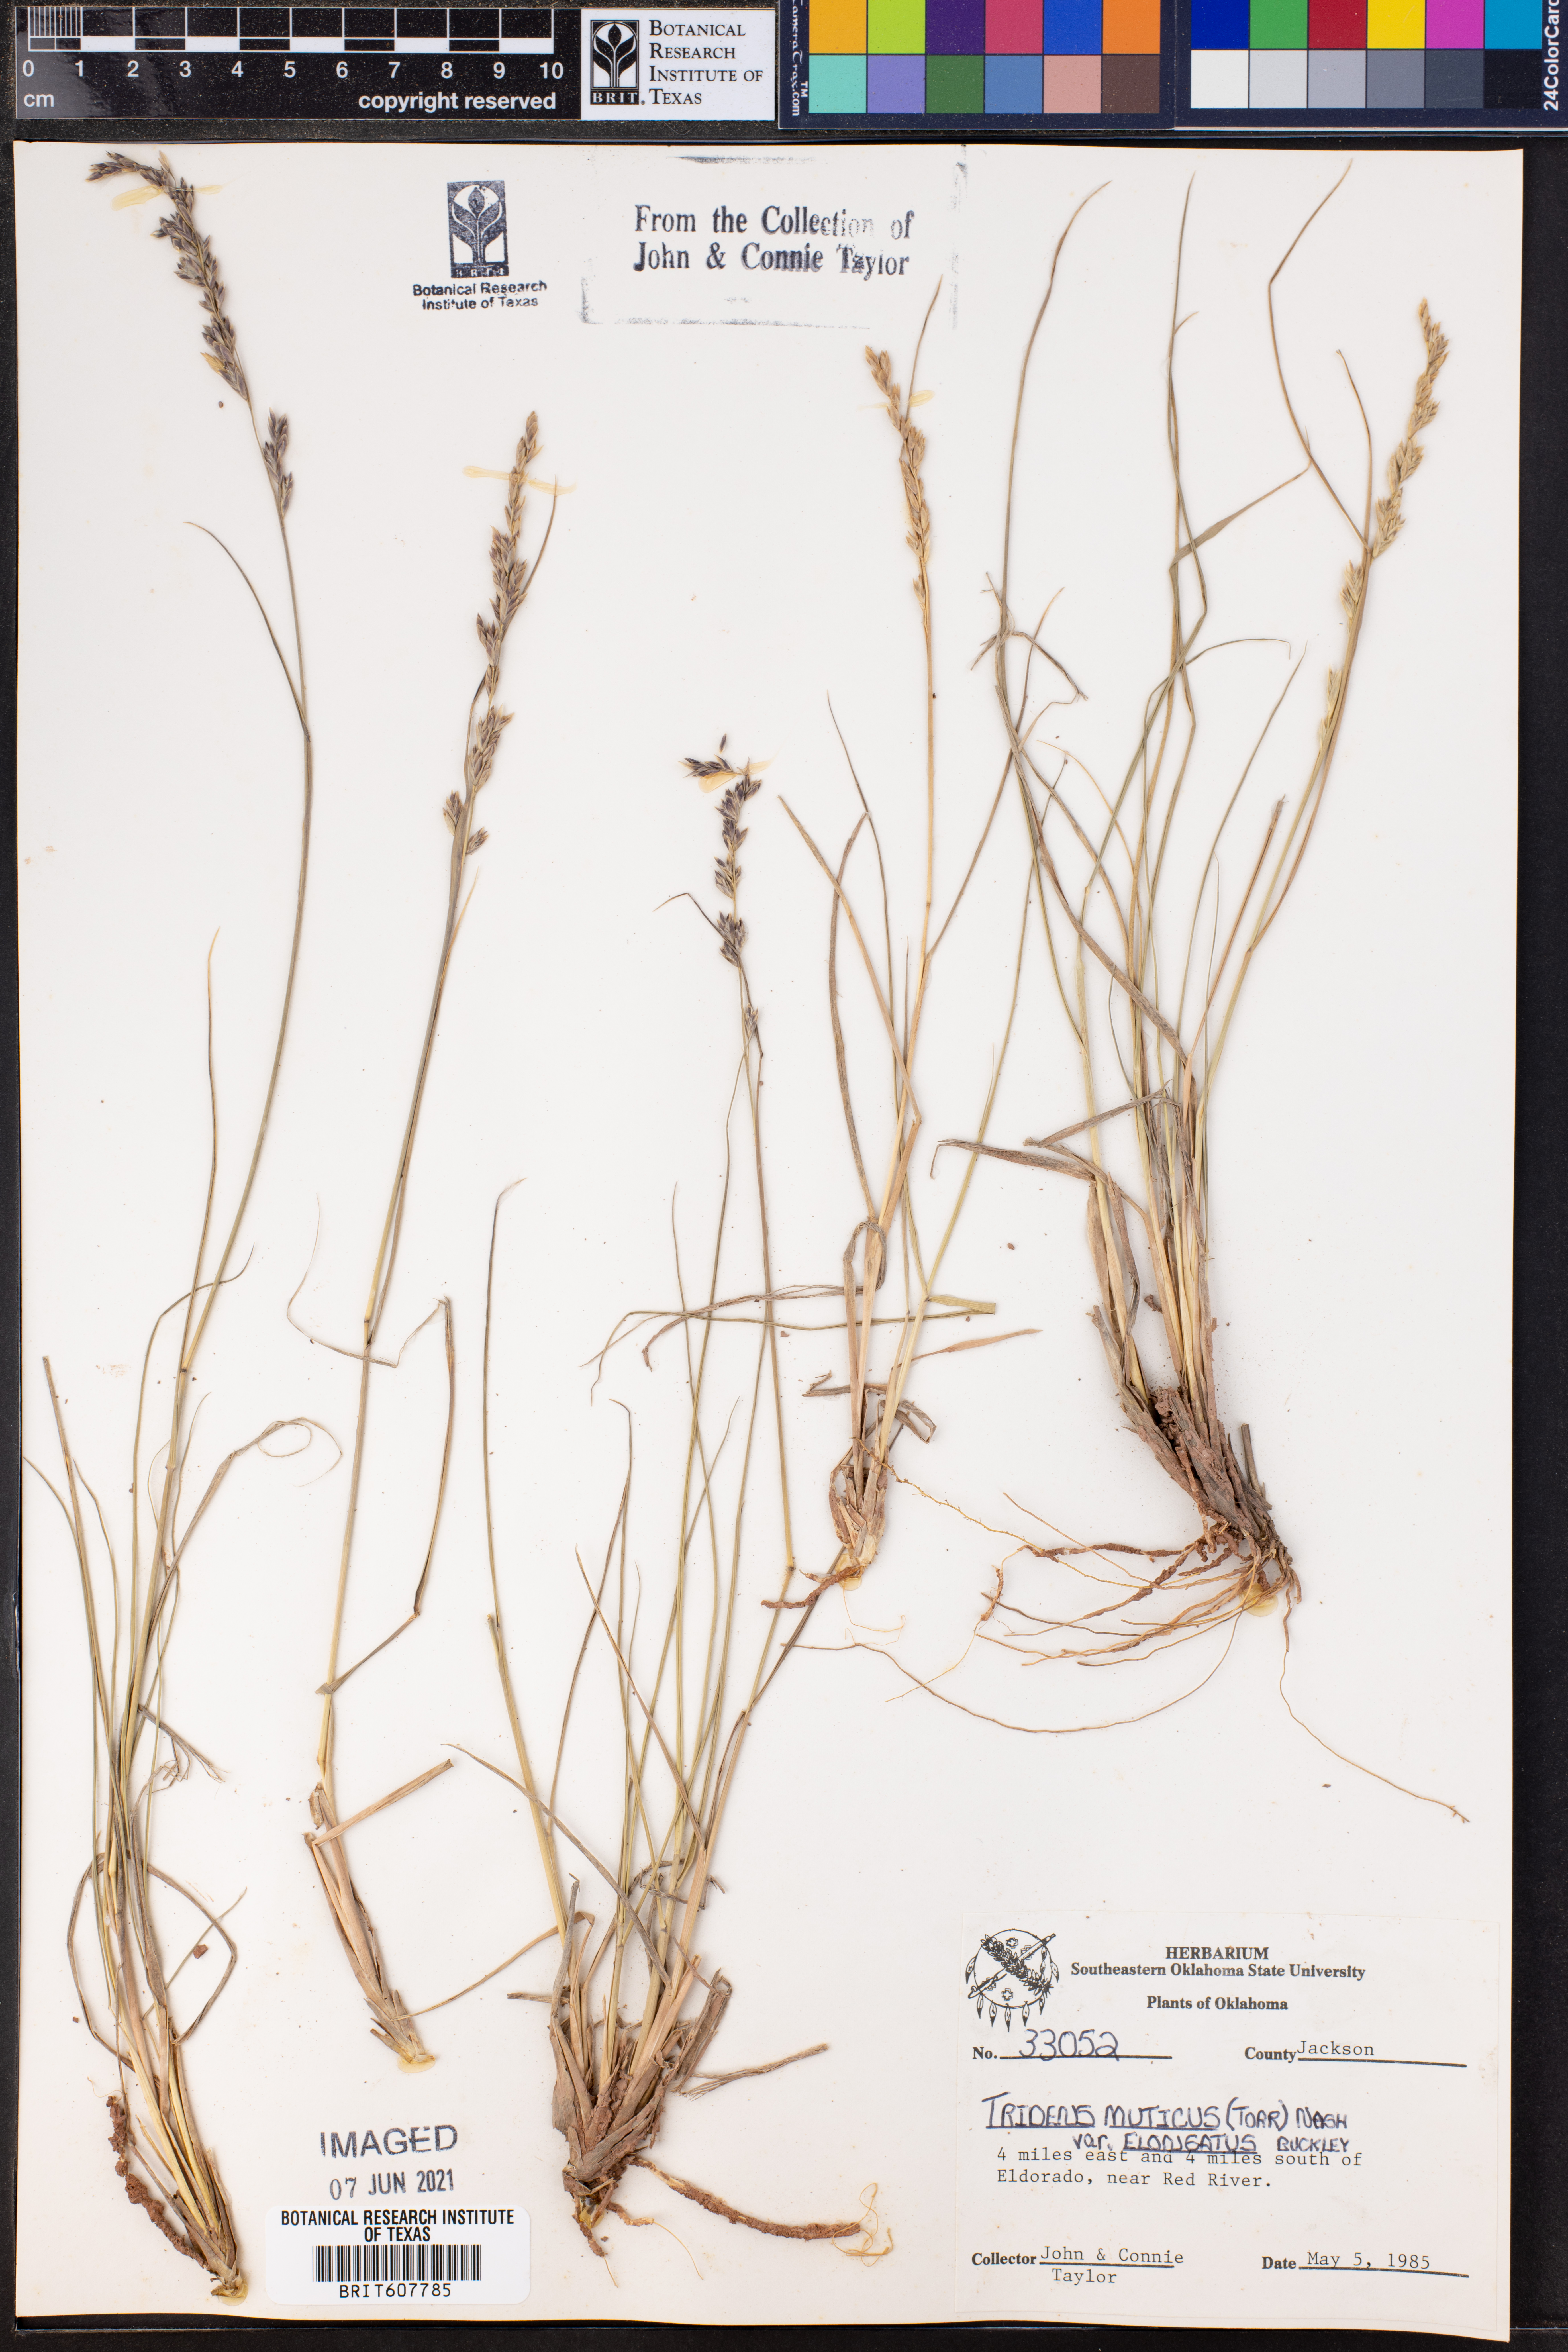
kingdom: Plantae
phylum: Tracheophyta
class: Liliopsida
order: Poales
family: Poaceae
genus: Tridentopsis
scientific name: Tridentopsis mutica
